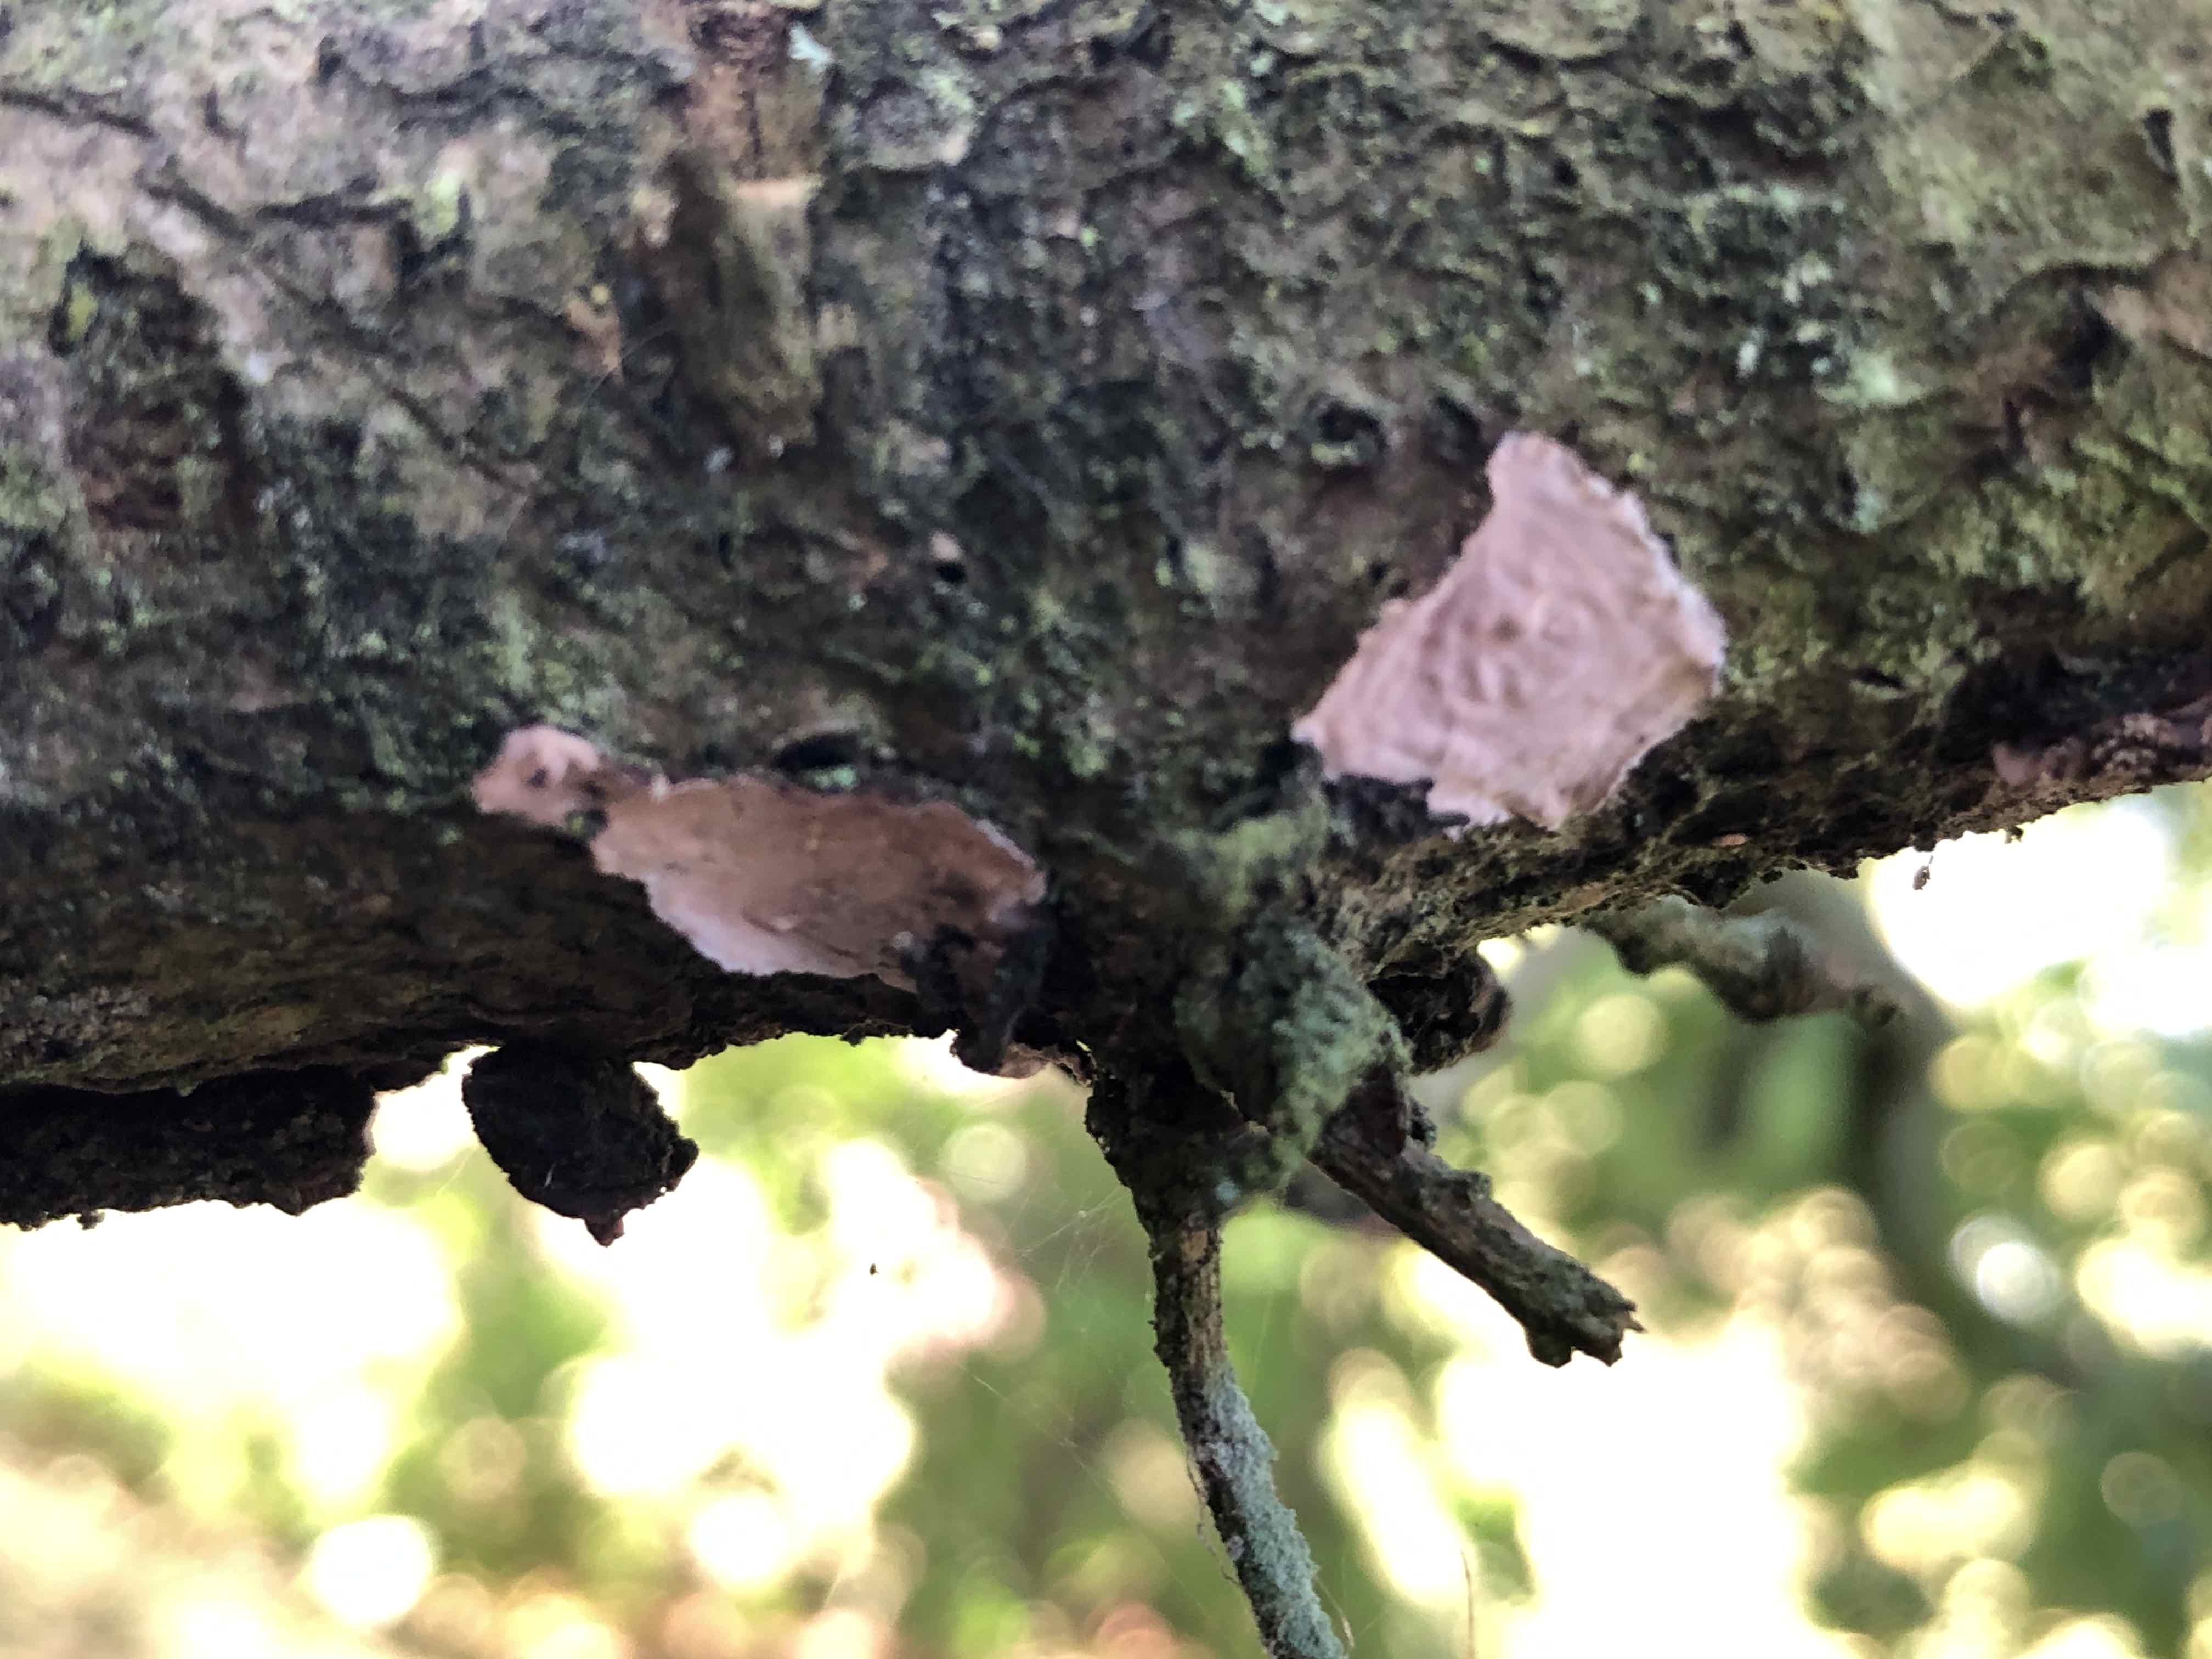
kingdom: Fungi
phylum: Basidiomycota
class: Agaricomycetes
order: Russulales
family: Peniophoraceae
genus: Peniophora
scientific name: Peniophora quercina
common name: ege-voksskind
